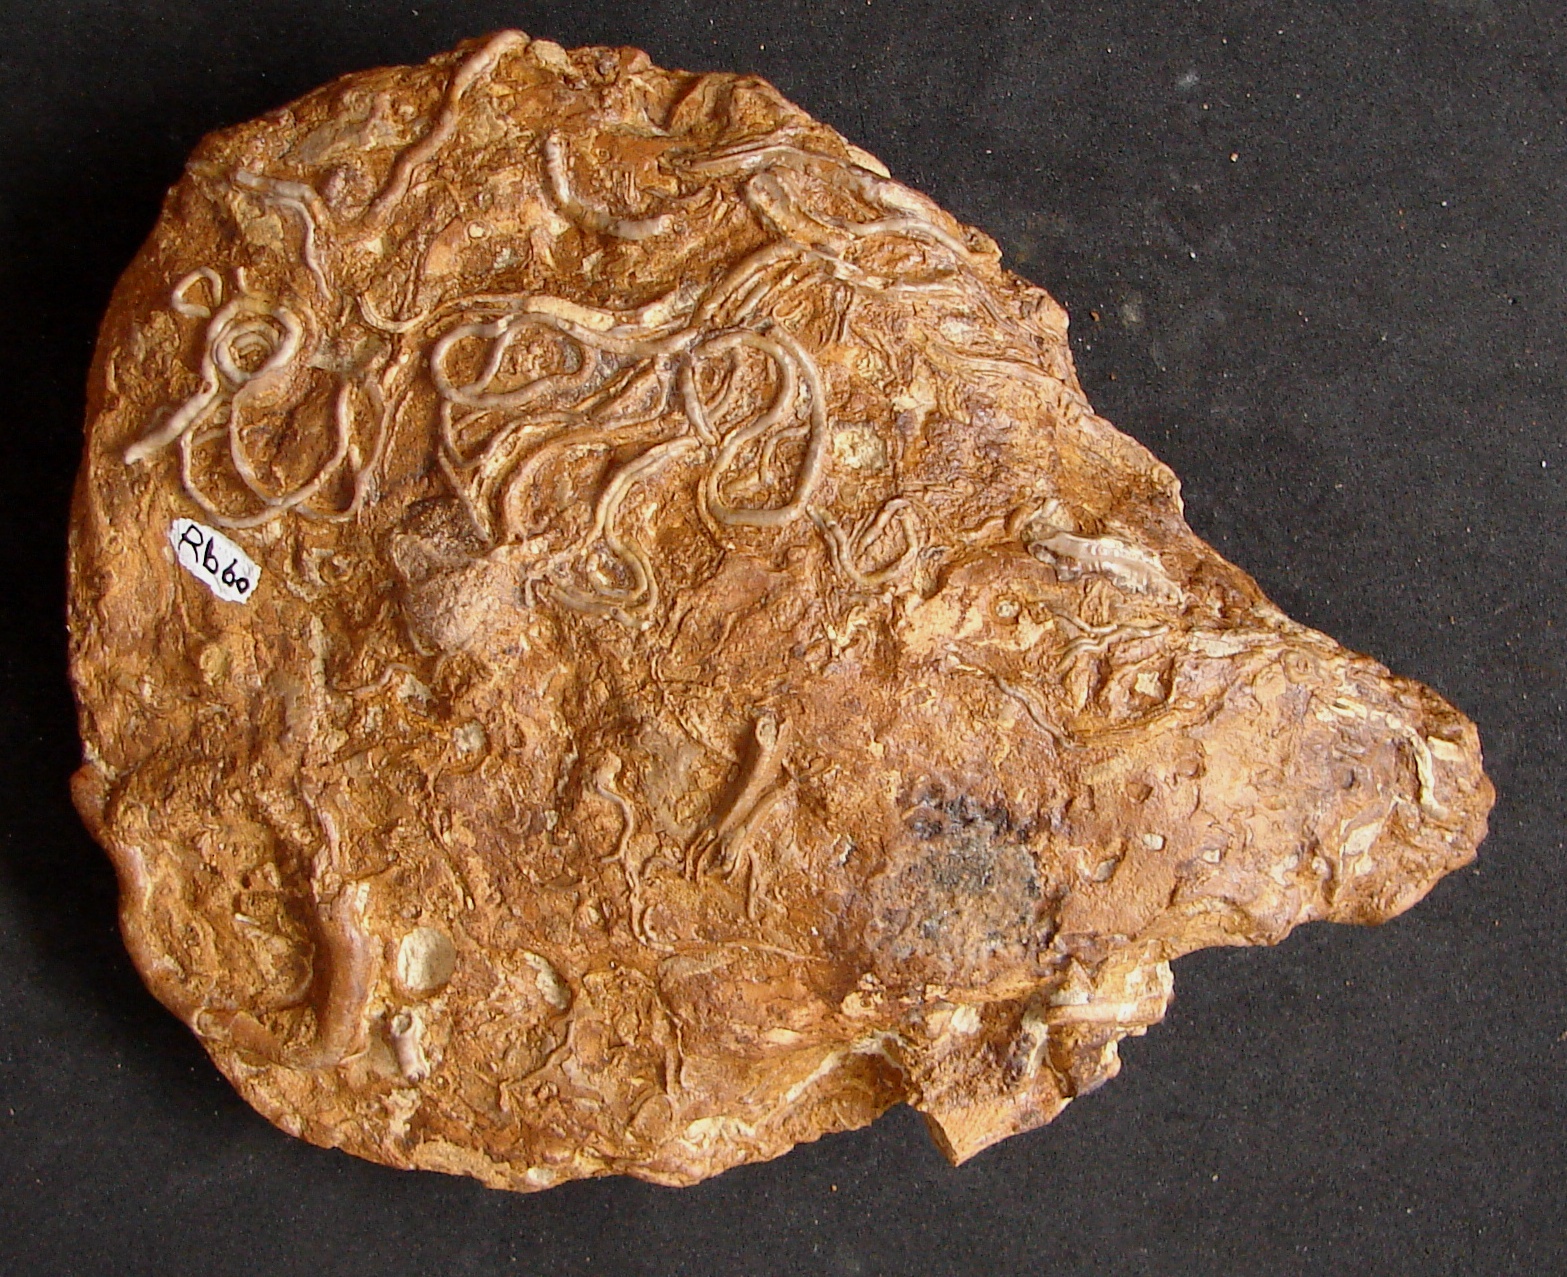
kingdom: Animalia
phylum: Cnidaria
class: Anthozoa
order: Scleractinia
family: Latomeandridae
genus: Periseris
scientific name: Periseris
